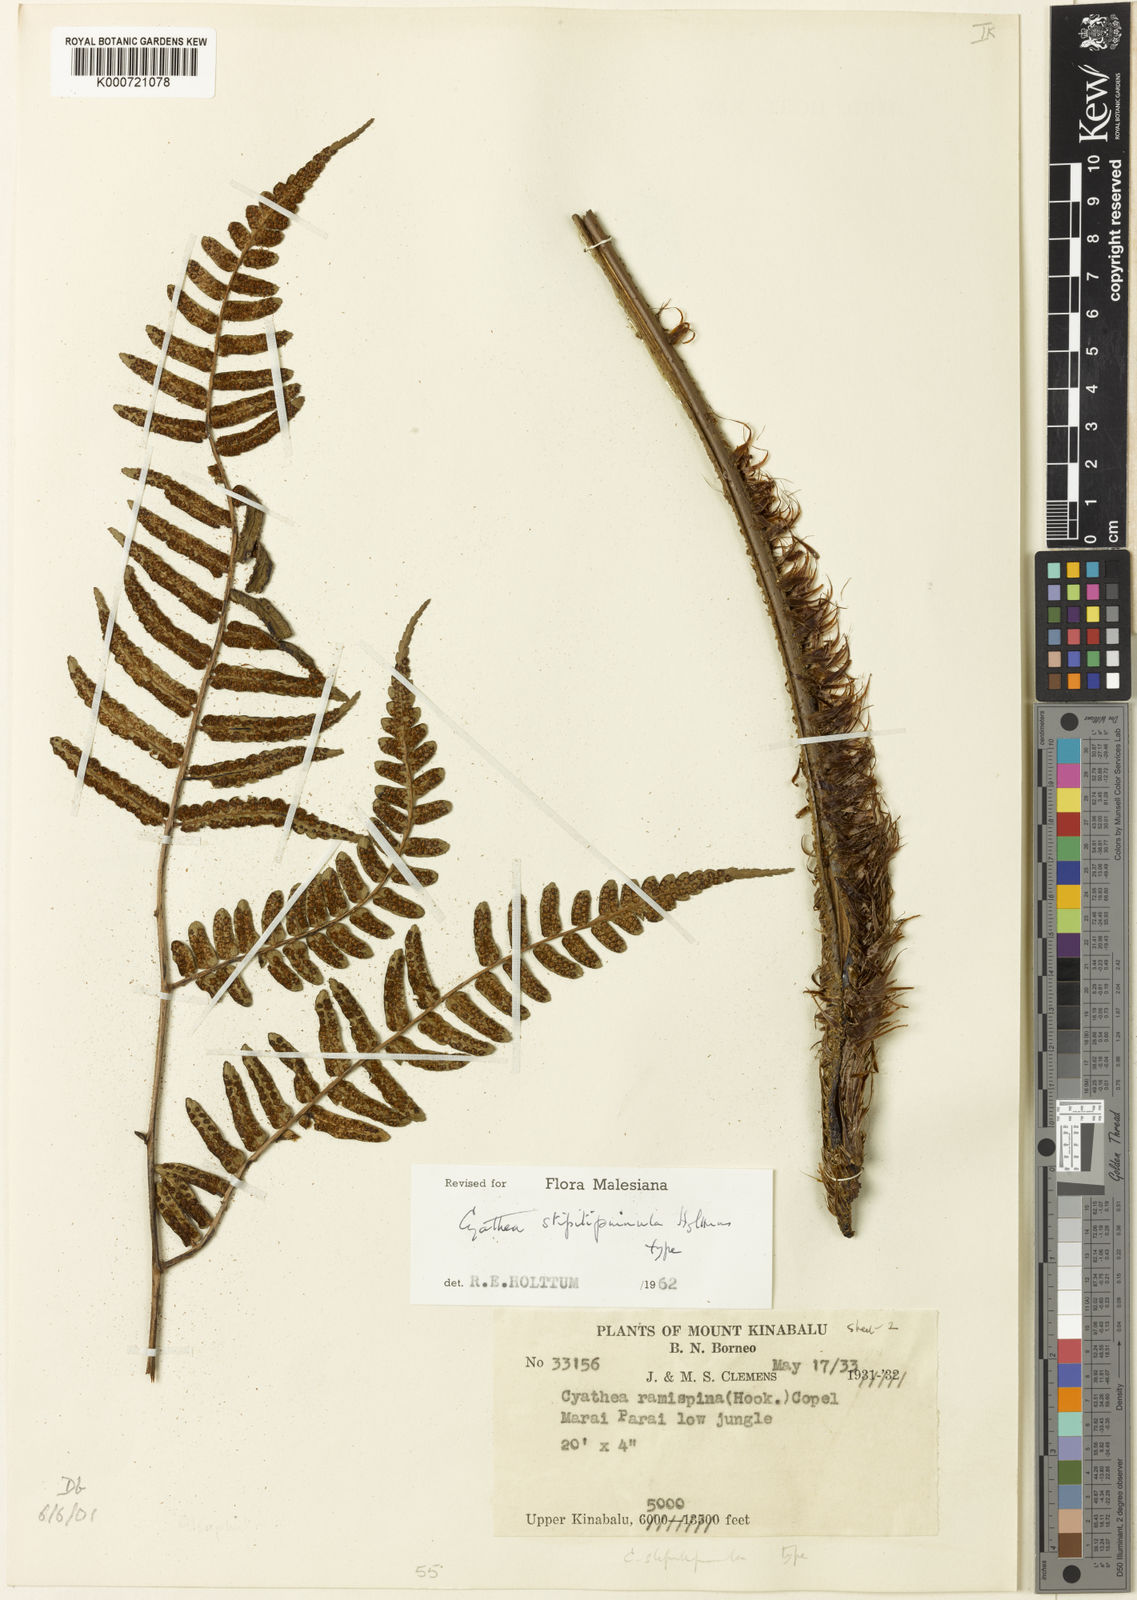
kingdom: Plantae
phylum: Tracheophyta
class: Polypodiopsida
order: Cyatheales
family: Cyatheaceae
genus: Sphaeropteris
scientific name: Sphaeropteris stipitipinnula
